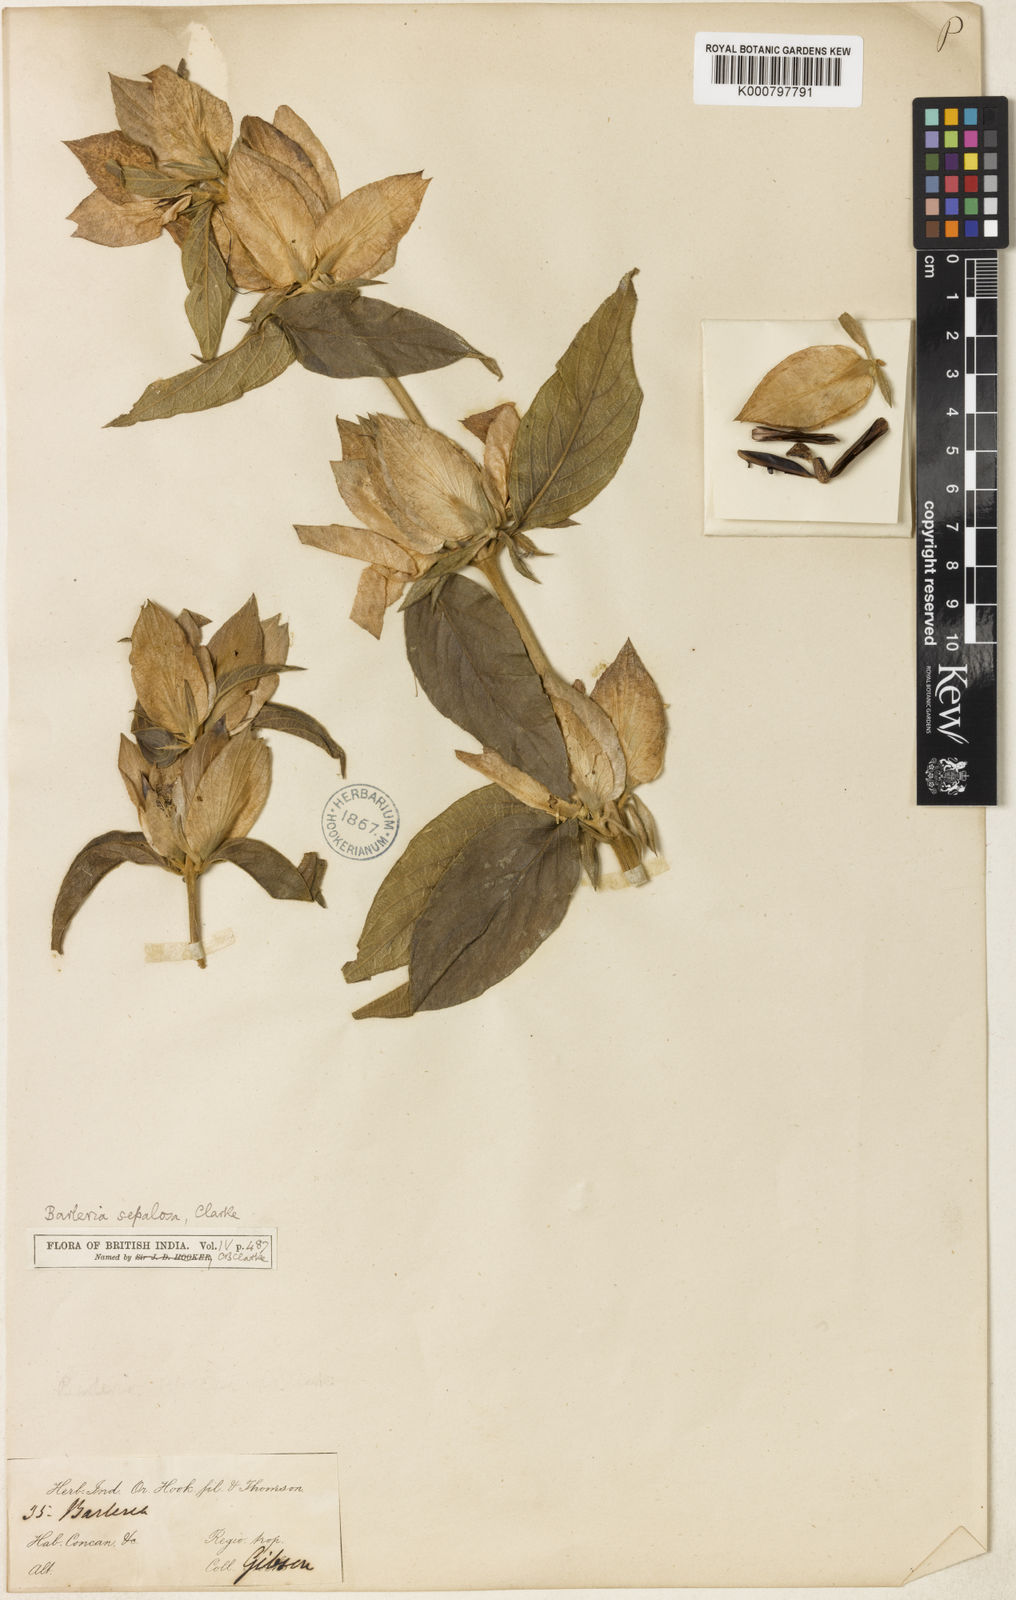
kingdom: Plantae
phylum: Tracheophyta
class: Magnoliopsida
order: Lamiales
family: Acanthaceae
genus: Barleria
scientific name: Barleria lawii
